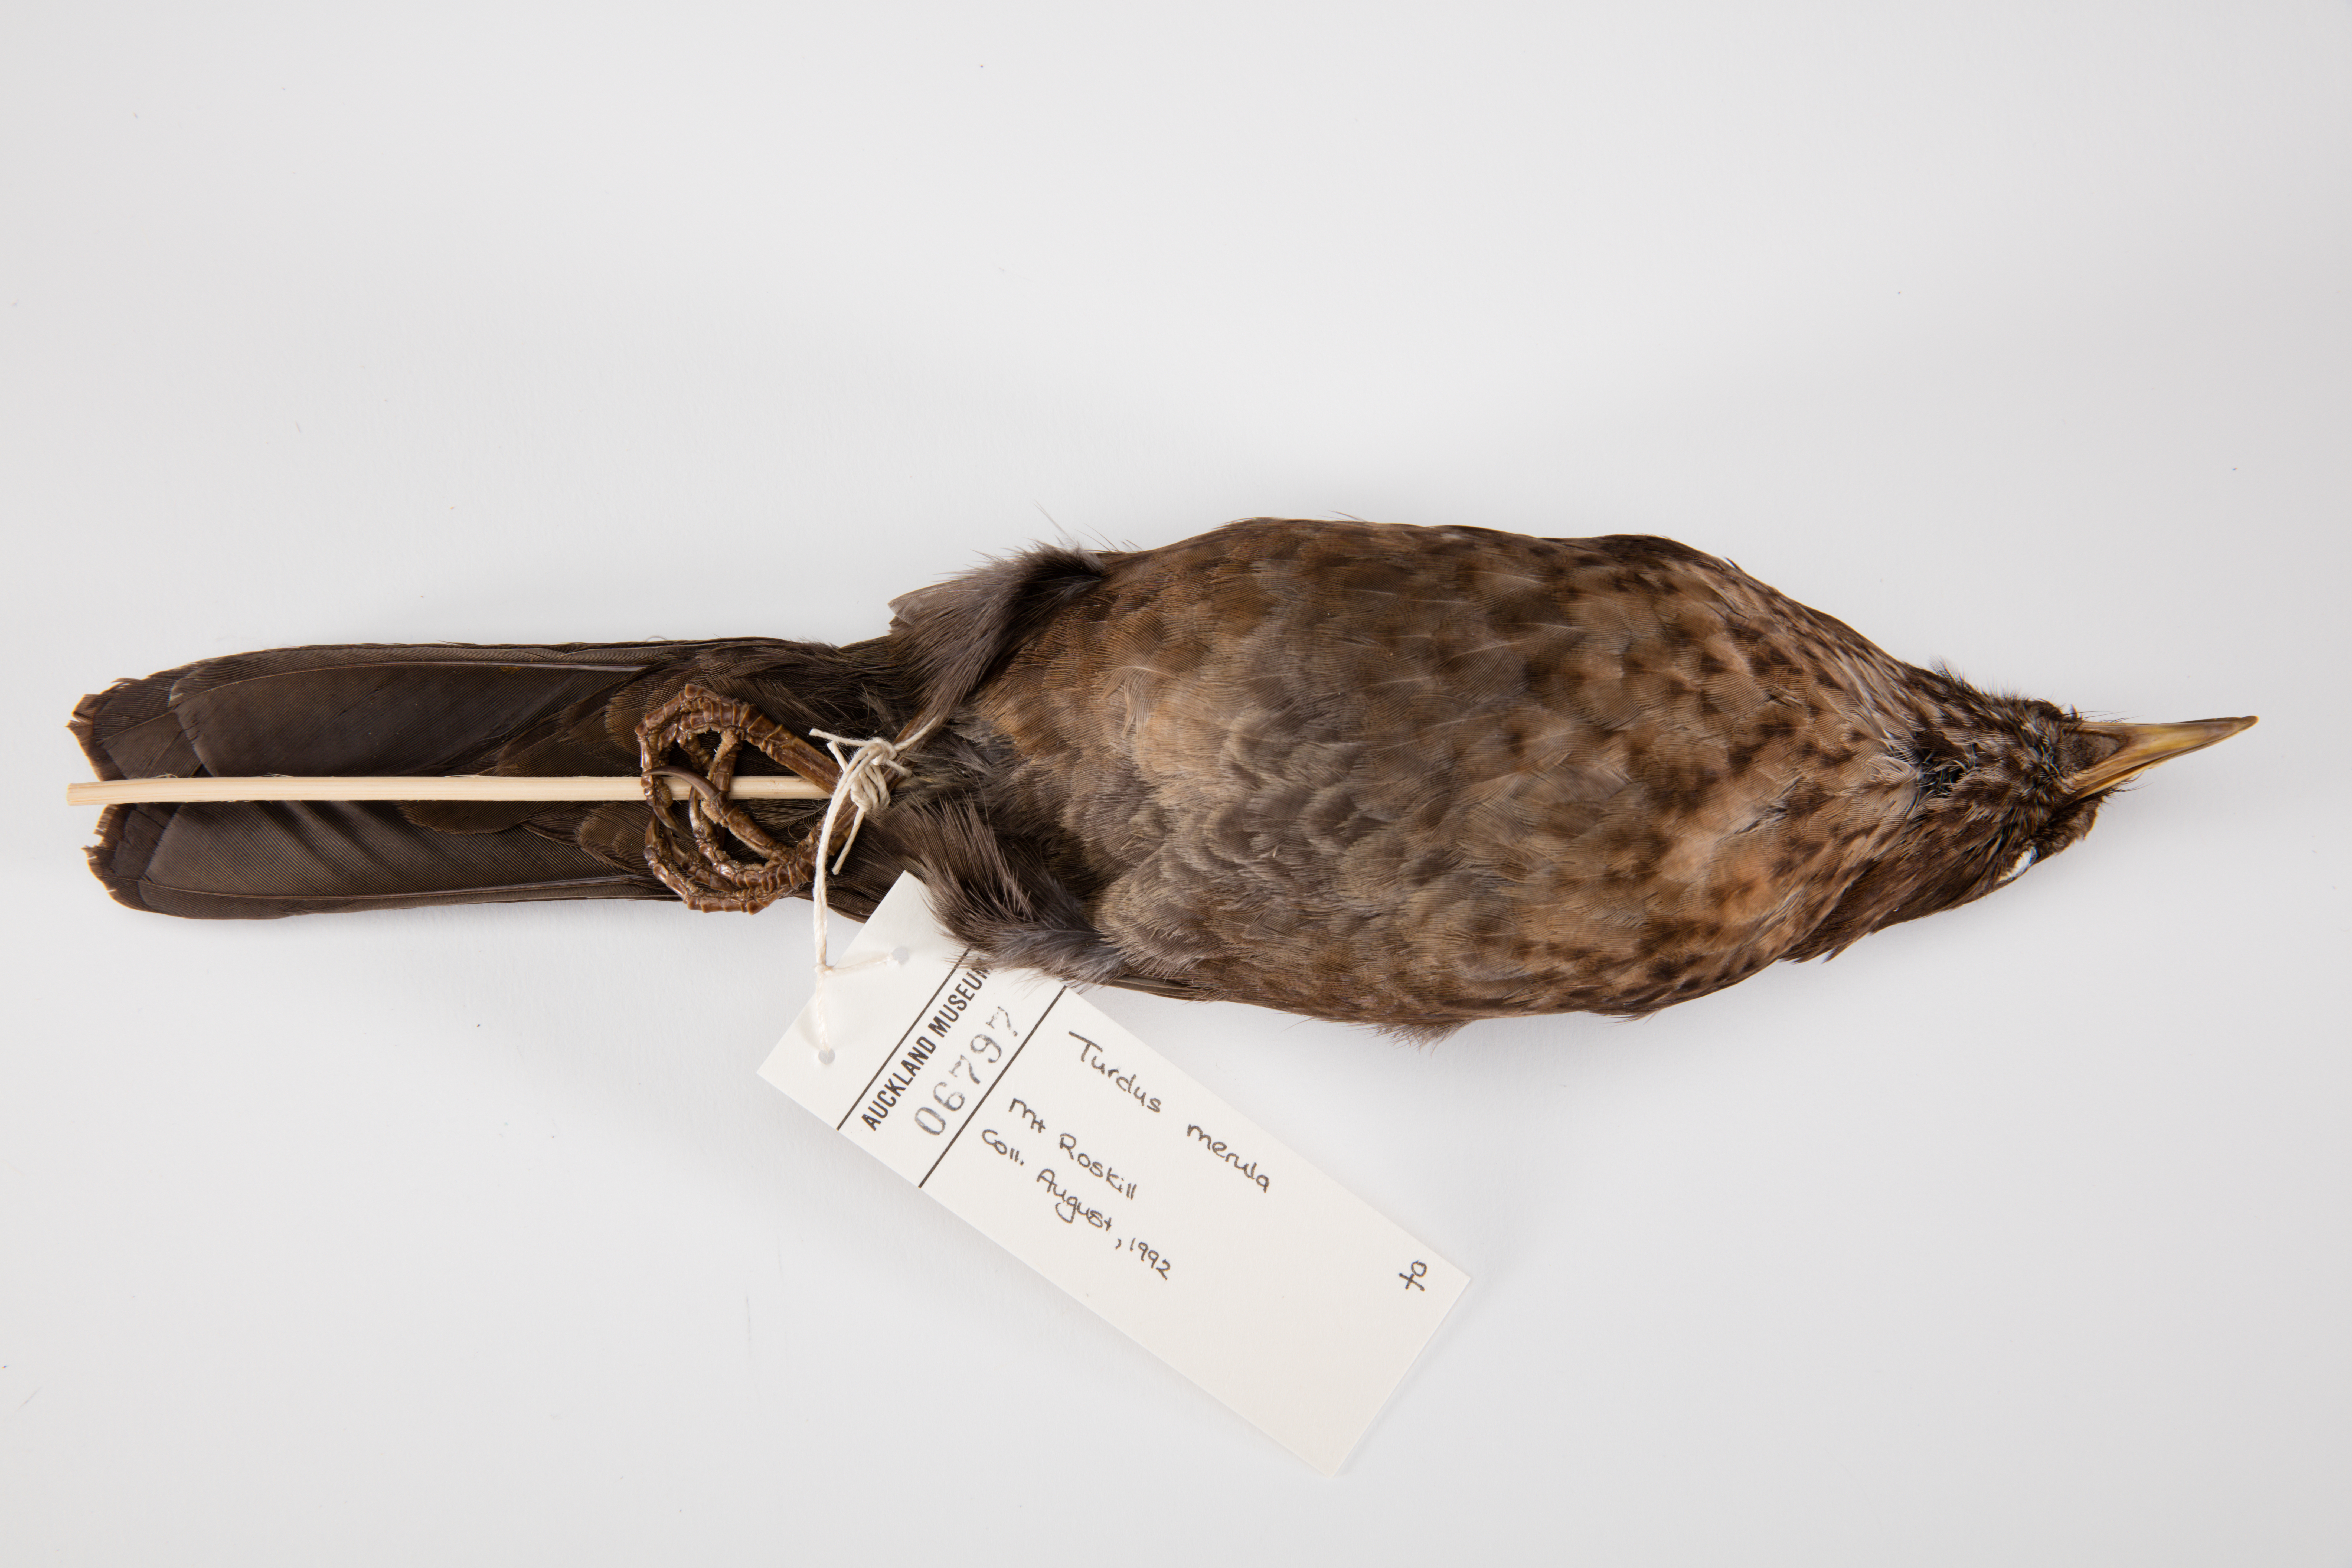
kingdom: Animalia
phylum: Chordata
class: Aves
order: Passeriformes
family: Turdidae
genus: Turdus
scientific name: Turdus merula
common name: Common blackbird
